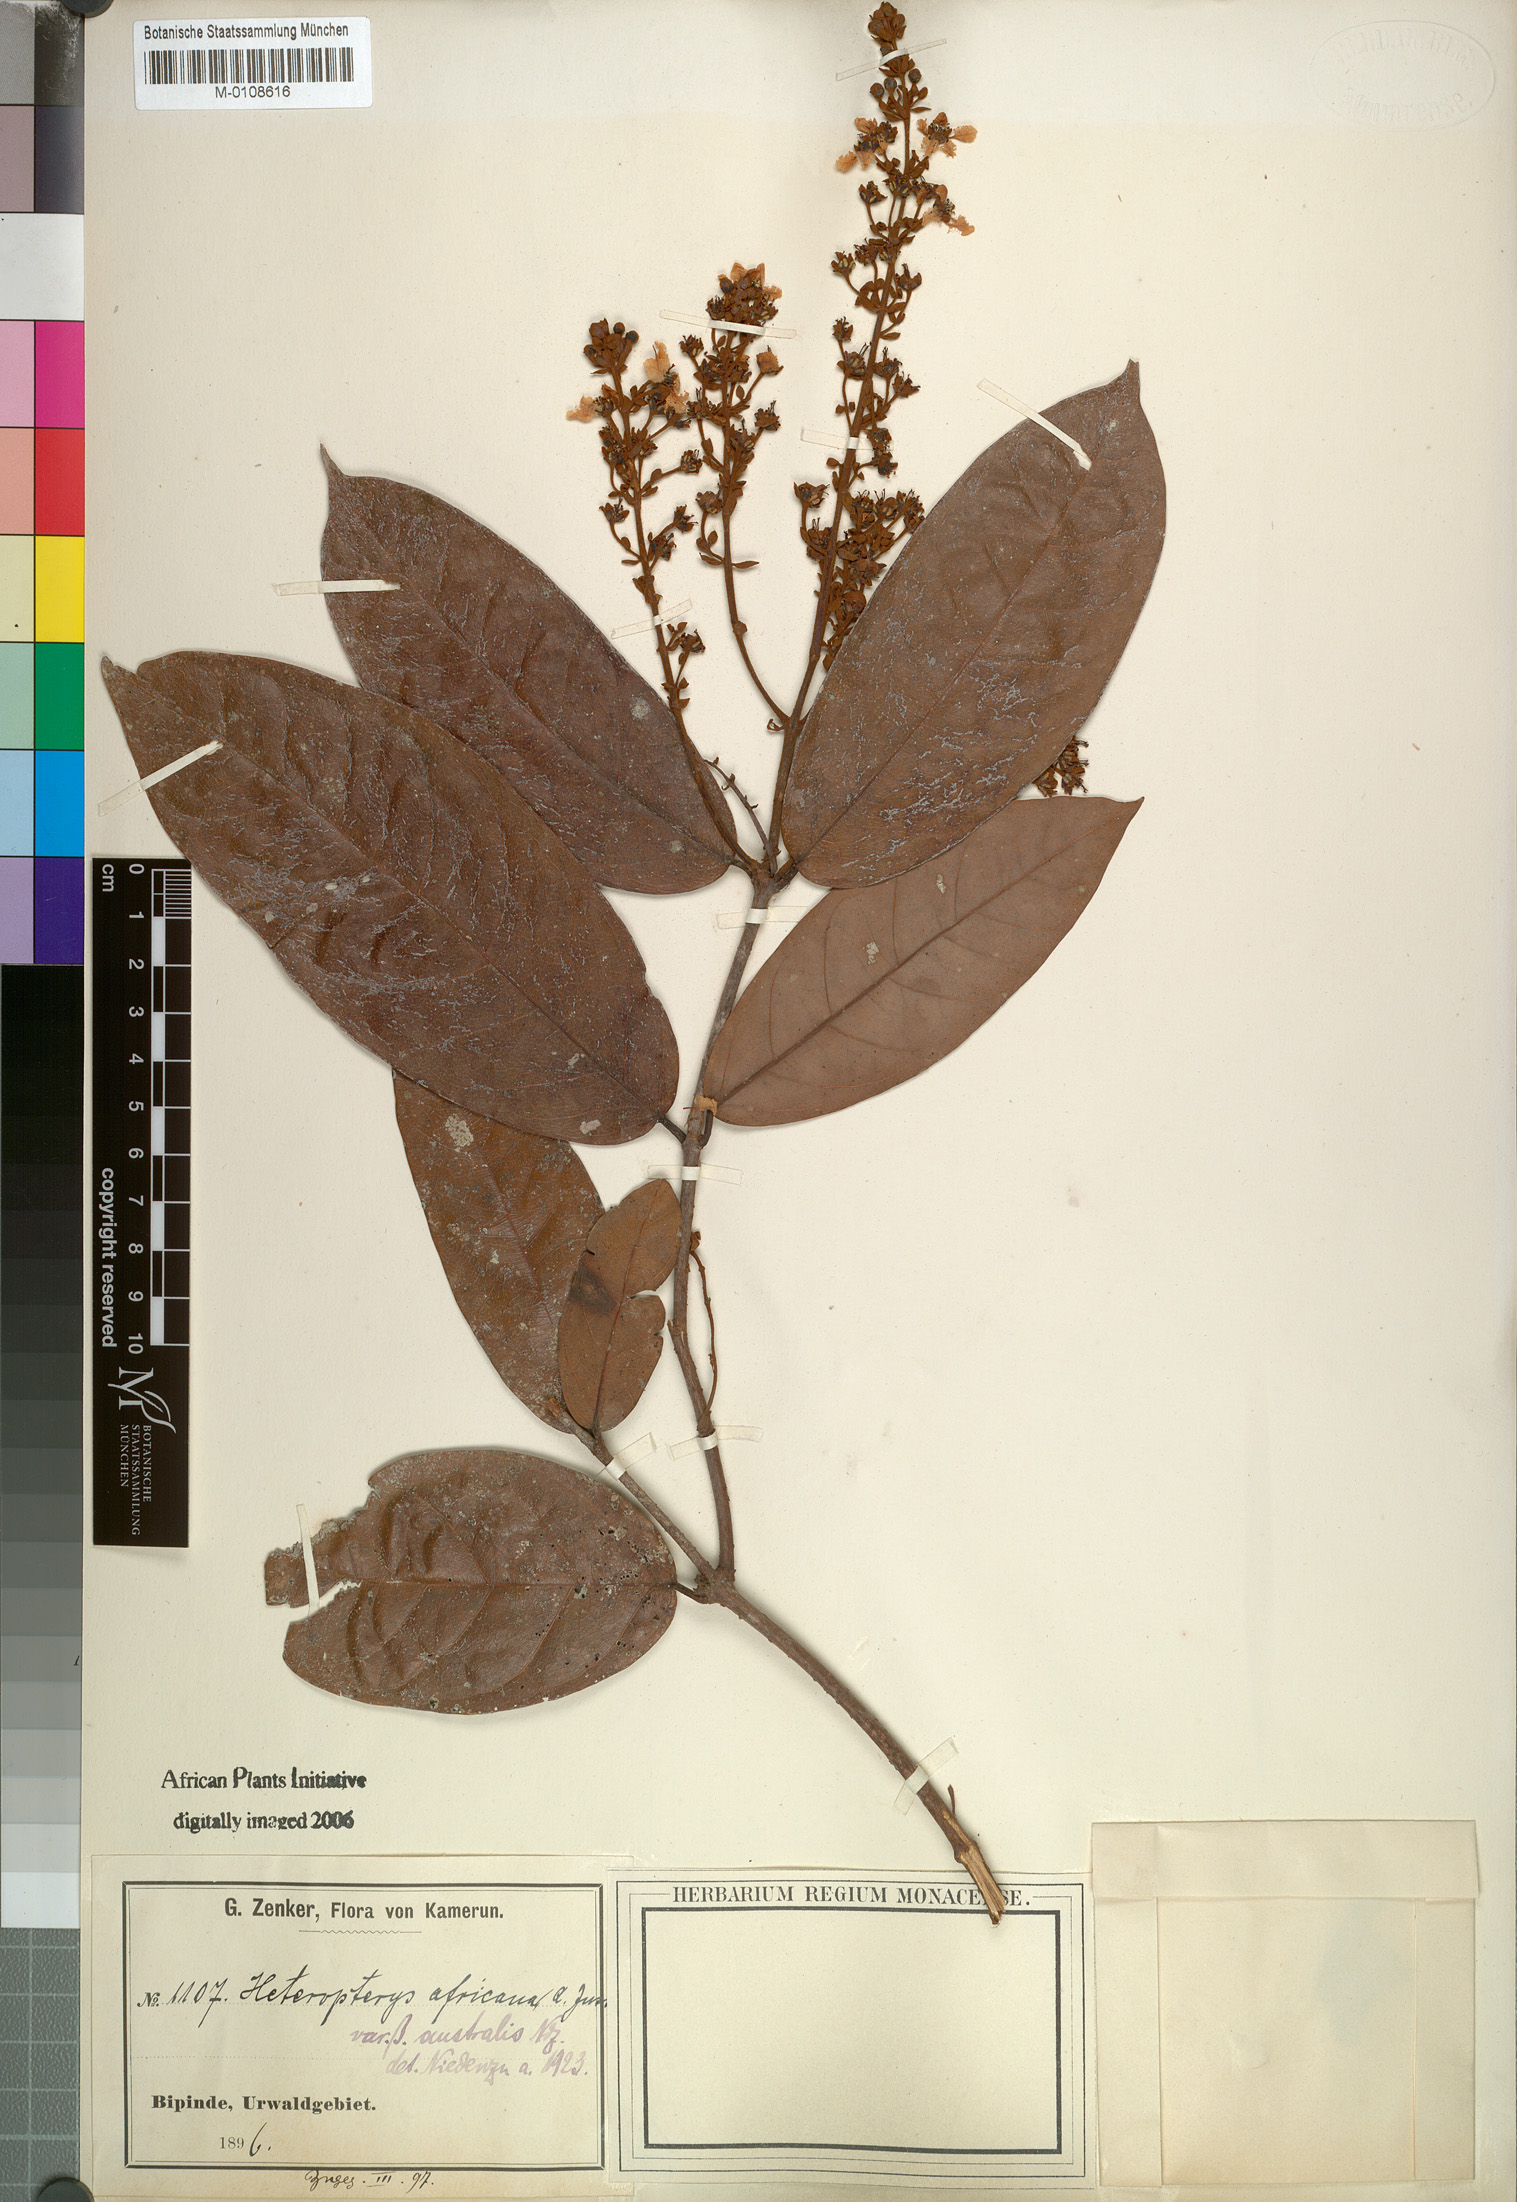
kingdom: Plantae
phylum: Tracheophyta
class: Magnoliopsida
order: Malpighiales
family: Malpighiaceae
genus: Heteropterys
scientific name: Heteropterys leona
